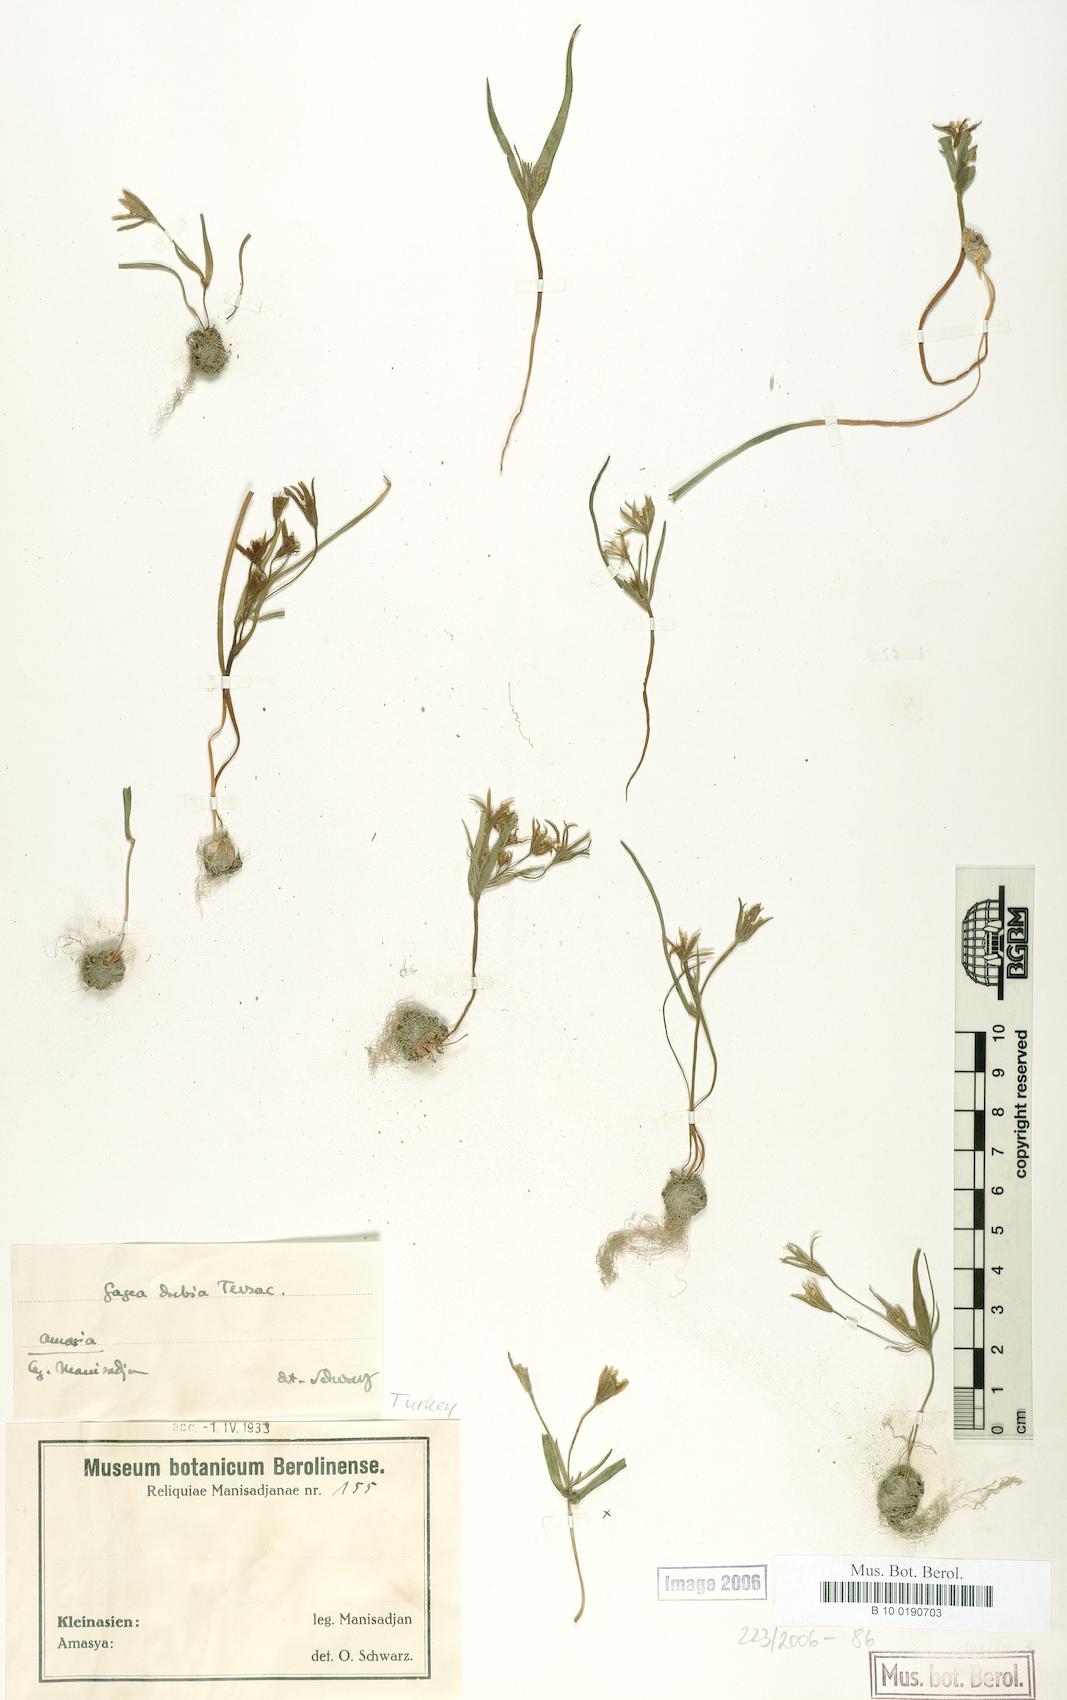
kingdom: Plantae
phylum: Tracheophyta
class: Liliopsida
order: Liliales
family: Liliaceae
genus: Gagea
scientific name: Gagea dubia
